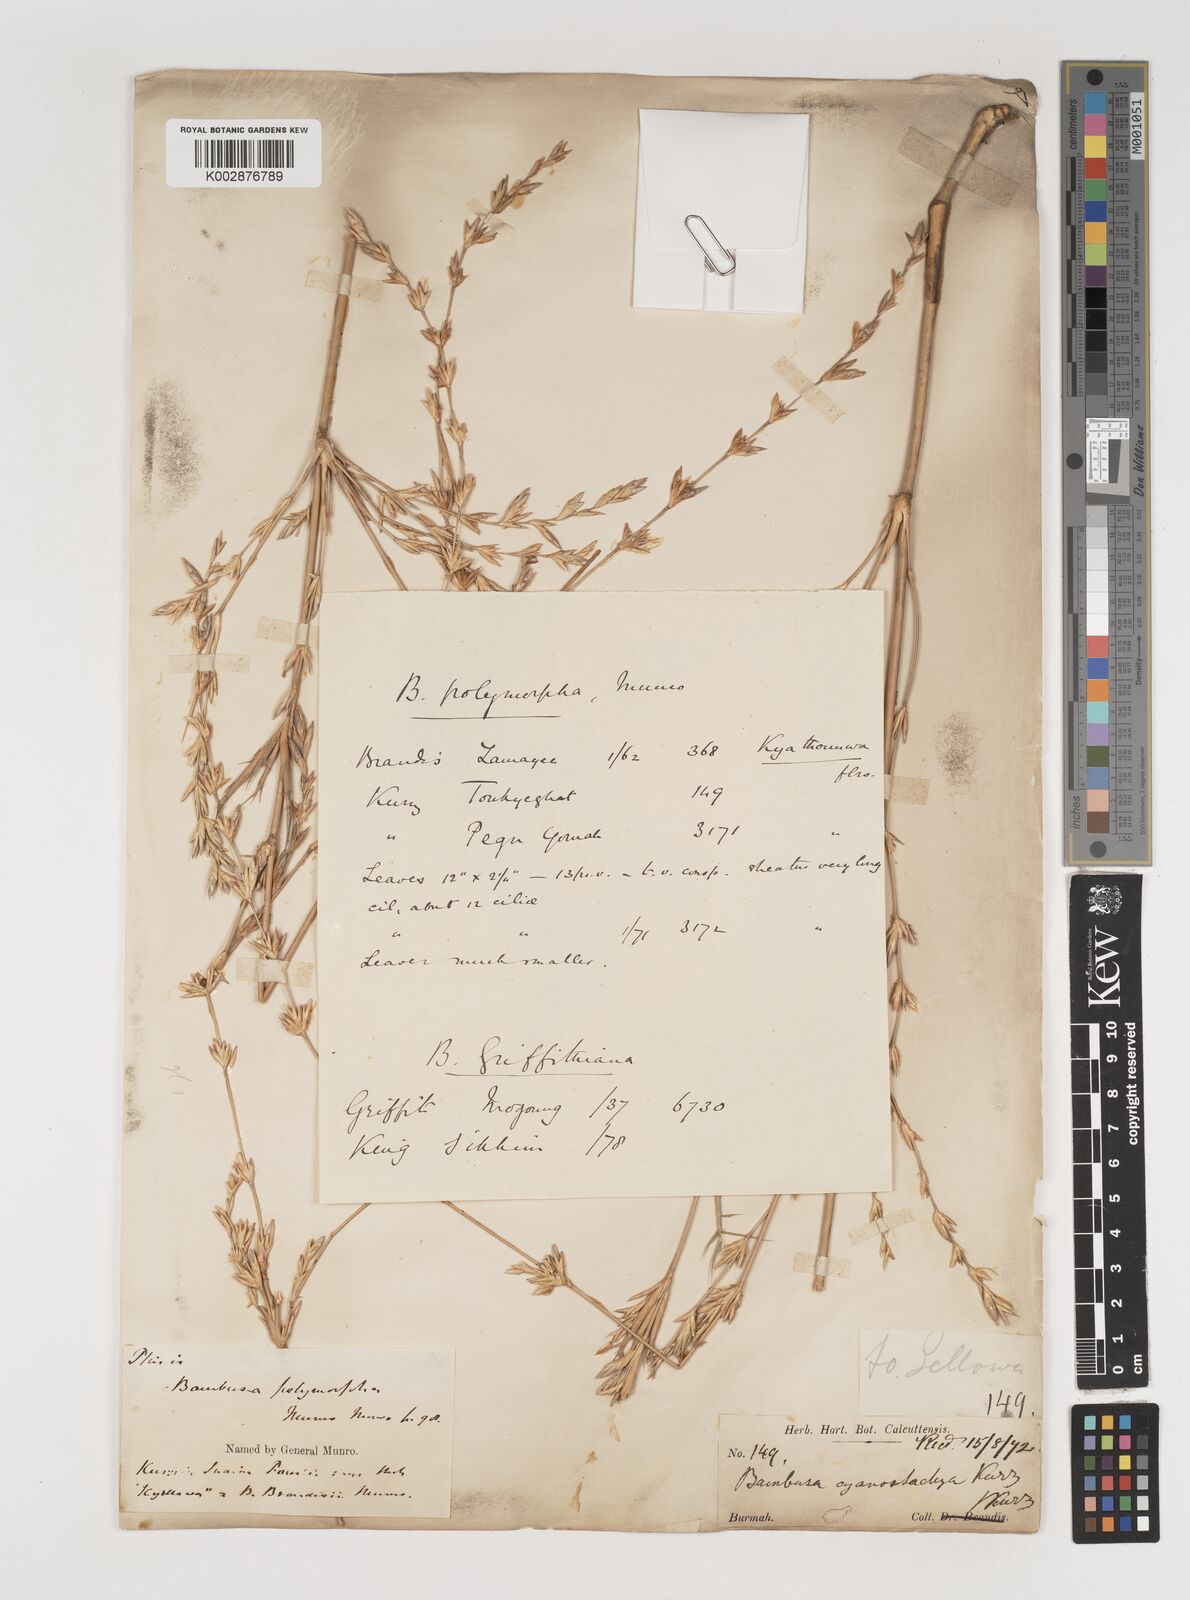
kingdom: Plantae
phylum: Tracheophyta
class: Liliopsida
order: Poales
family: Poaceae
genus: Bambusa
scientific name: Bambusa polymorpha
